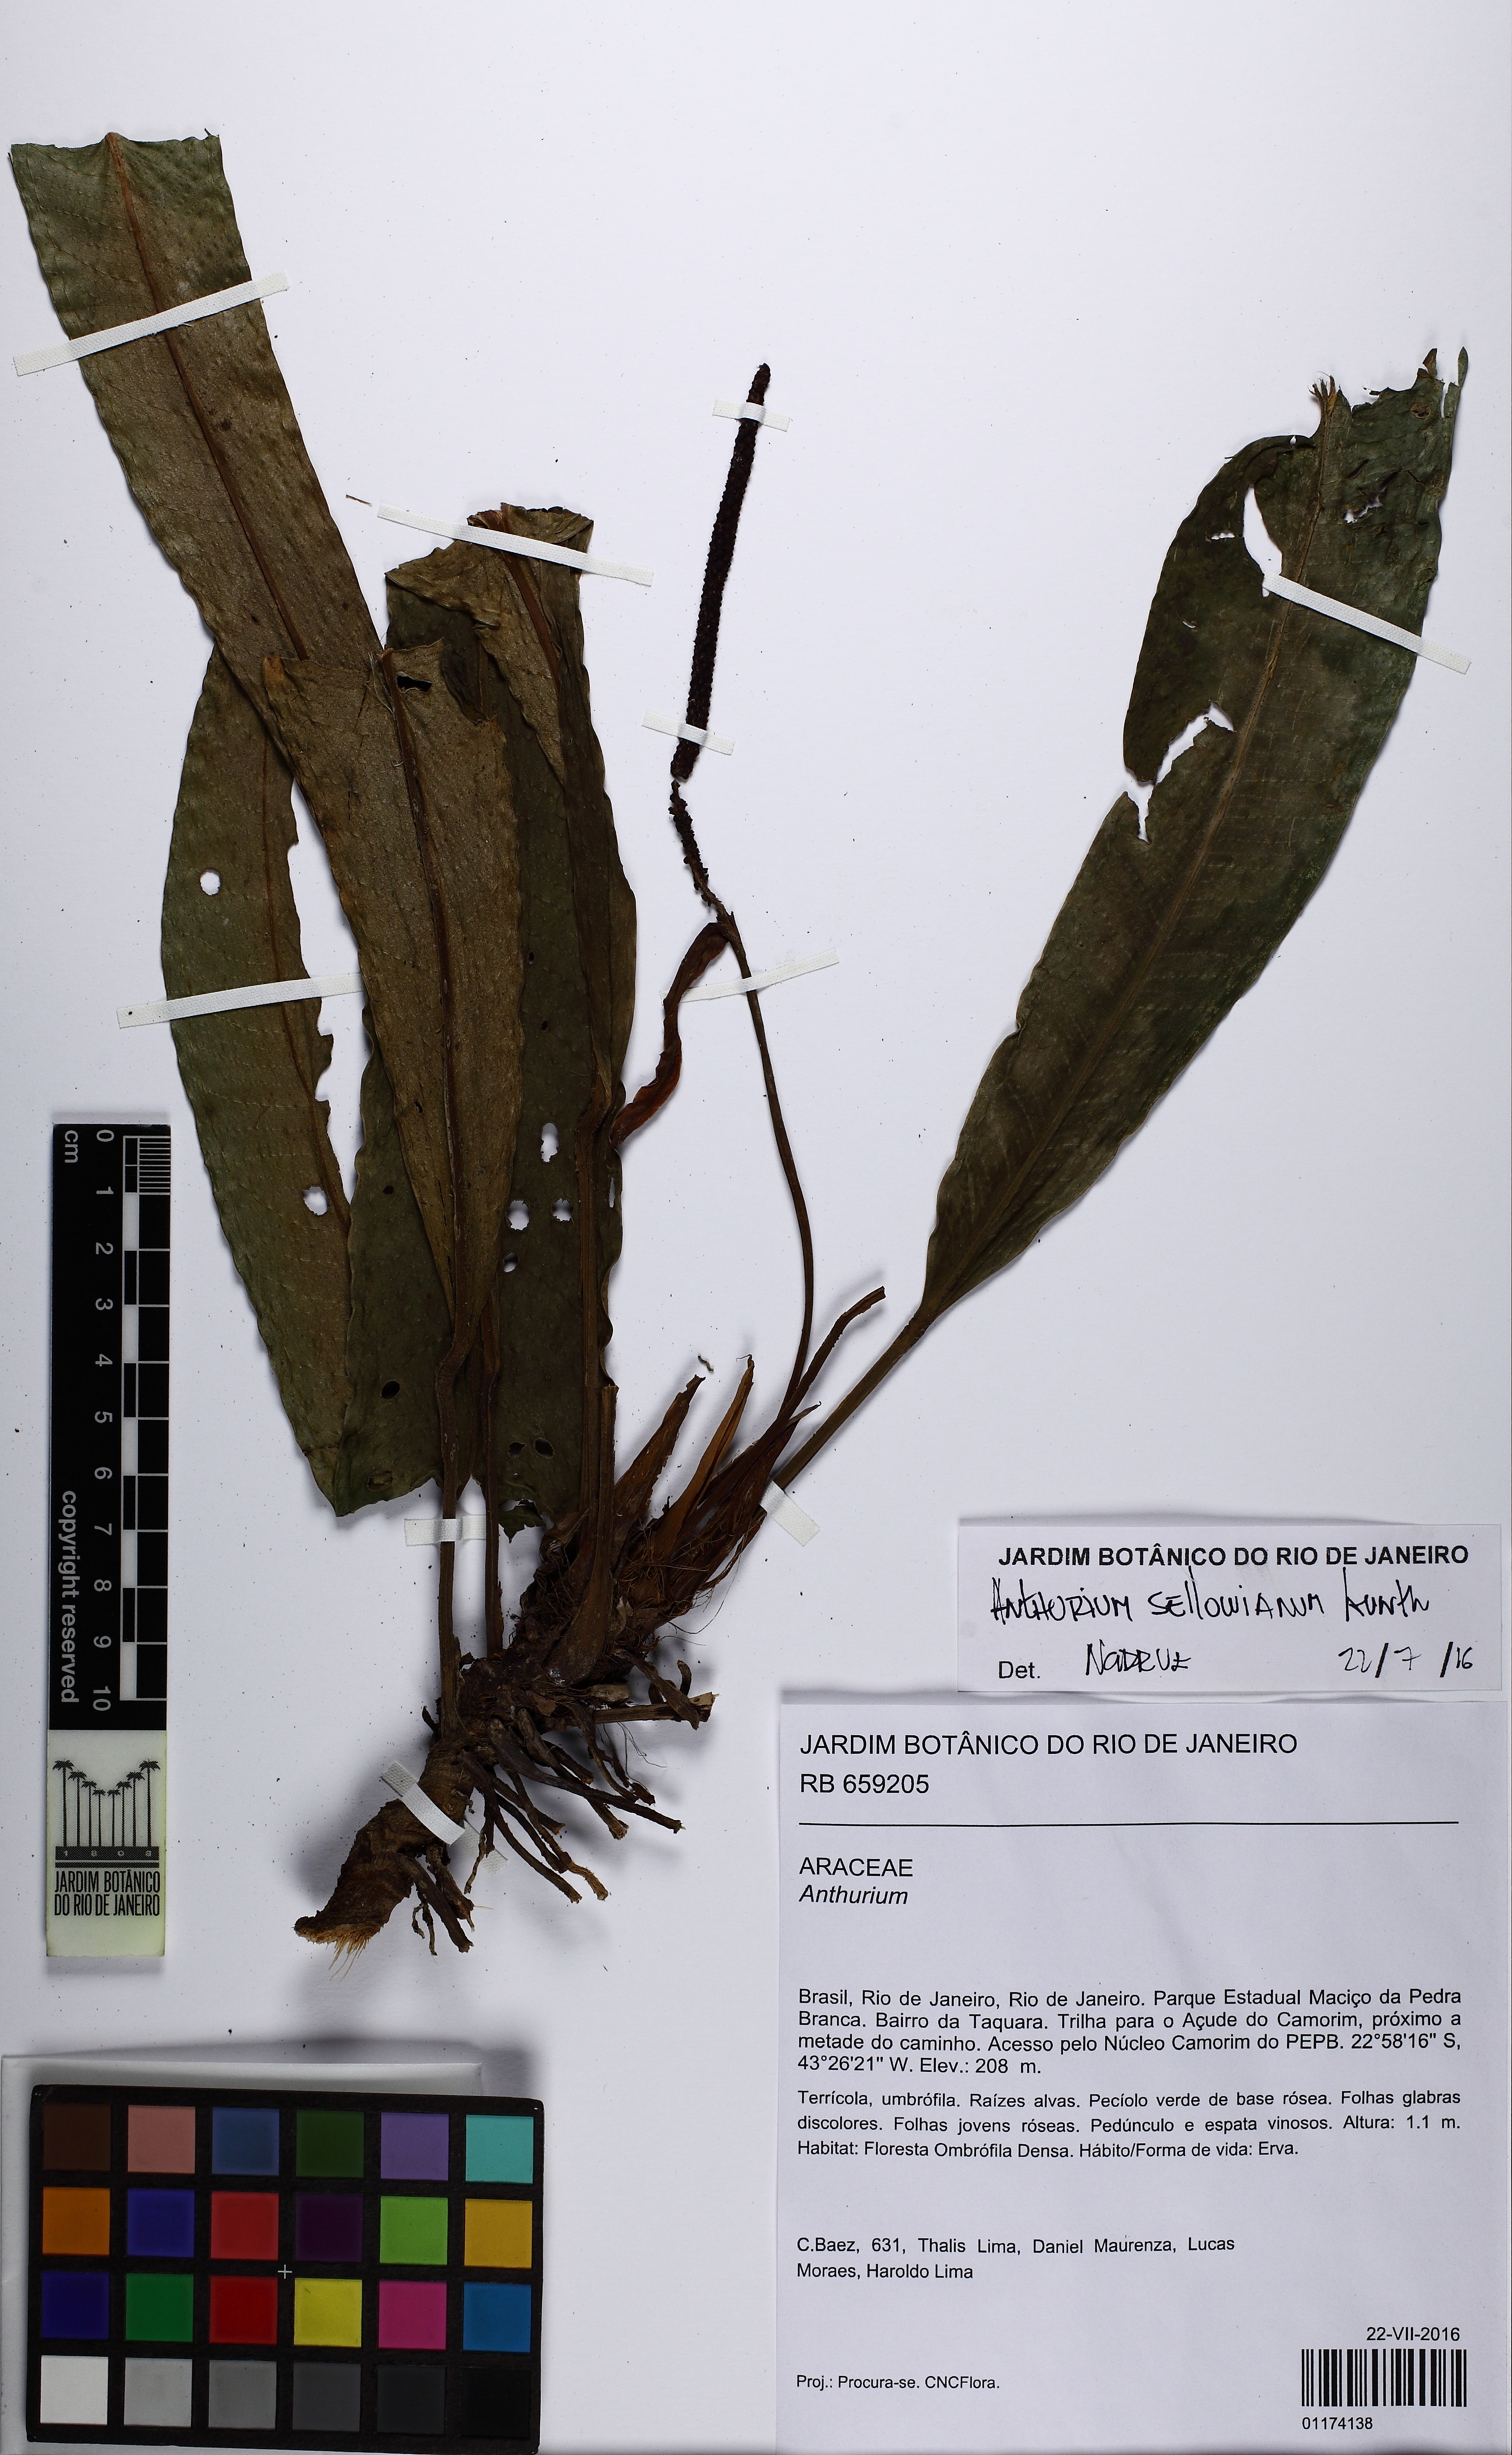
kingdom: Plantae
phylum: Tracheophyta
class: Liliopsida
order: Alismatales
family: Araceae
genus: Anthurium
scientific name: Anthurium sellowianum
